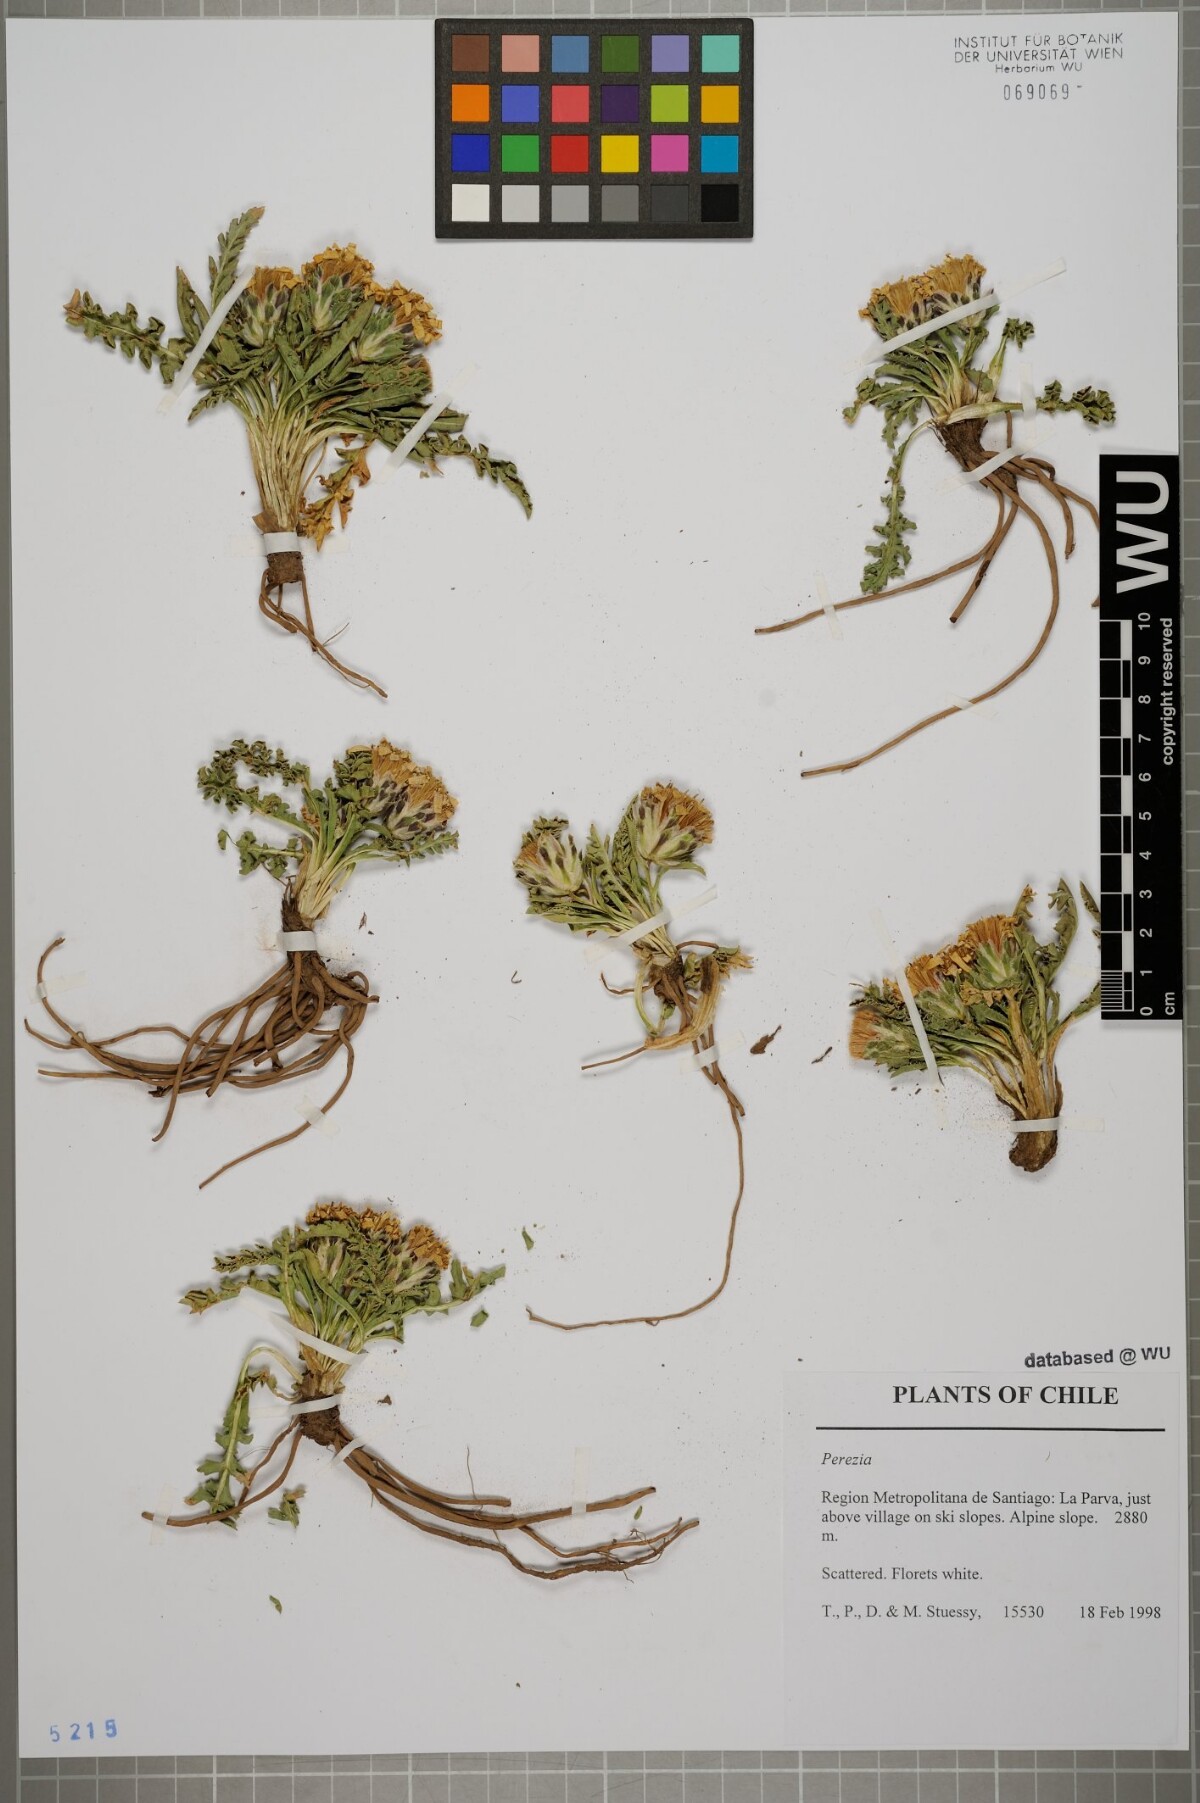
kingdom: Plantae
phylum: Tracheophyta
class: Magnoliopsida
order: Asterales
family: Asteraceae
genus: Perezia
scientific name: Perezia
